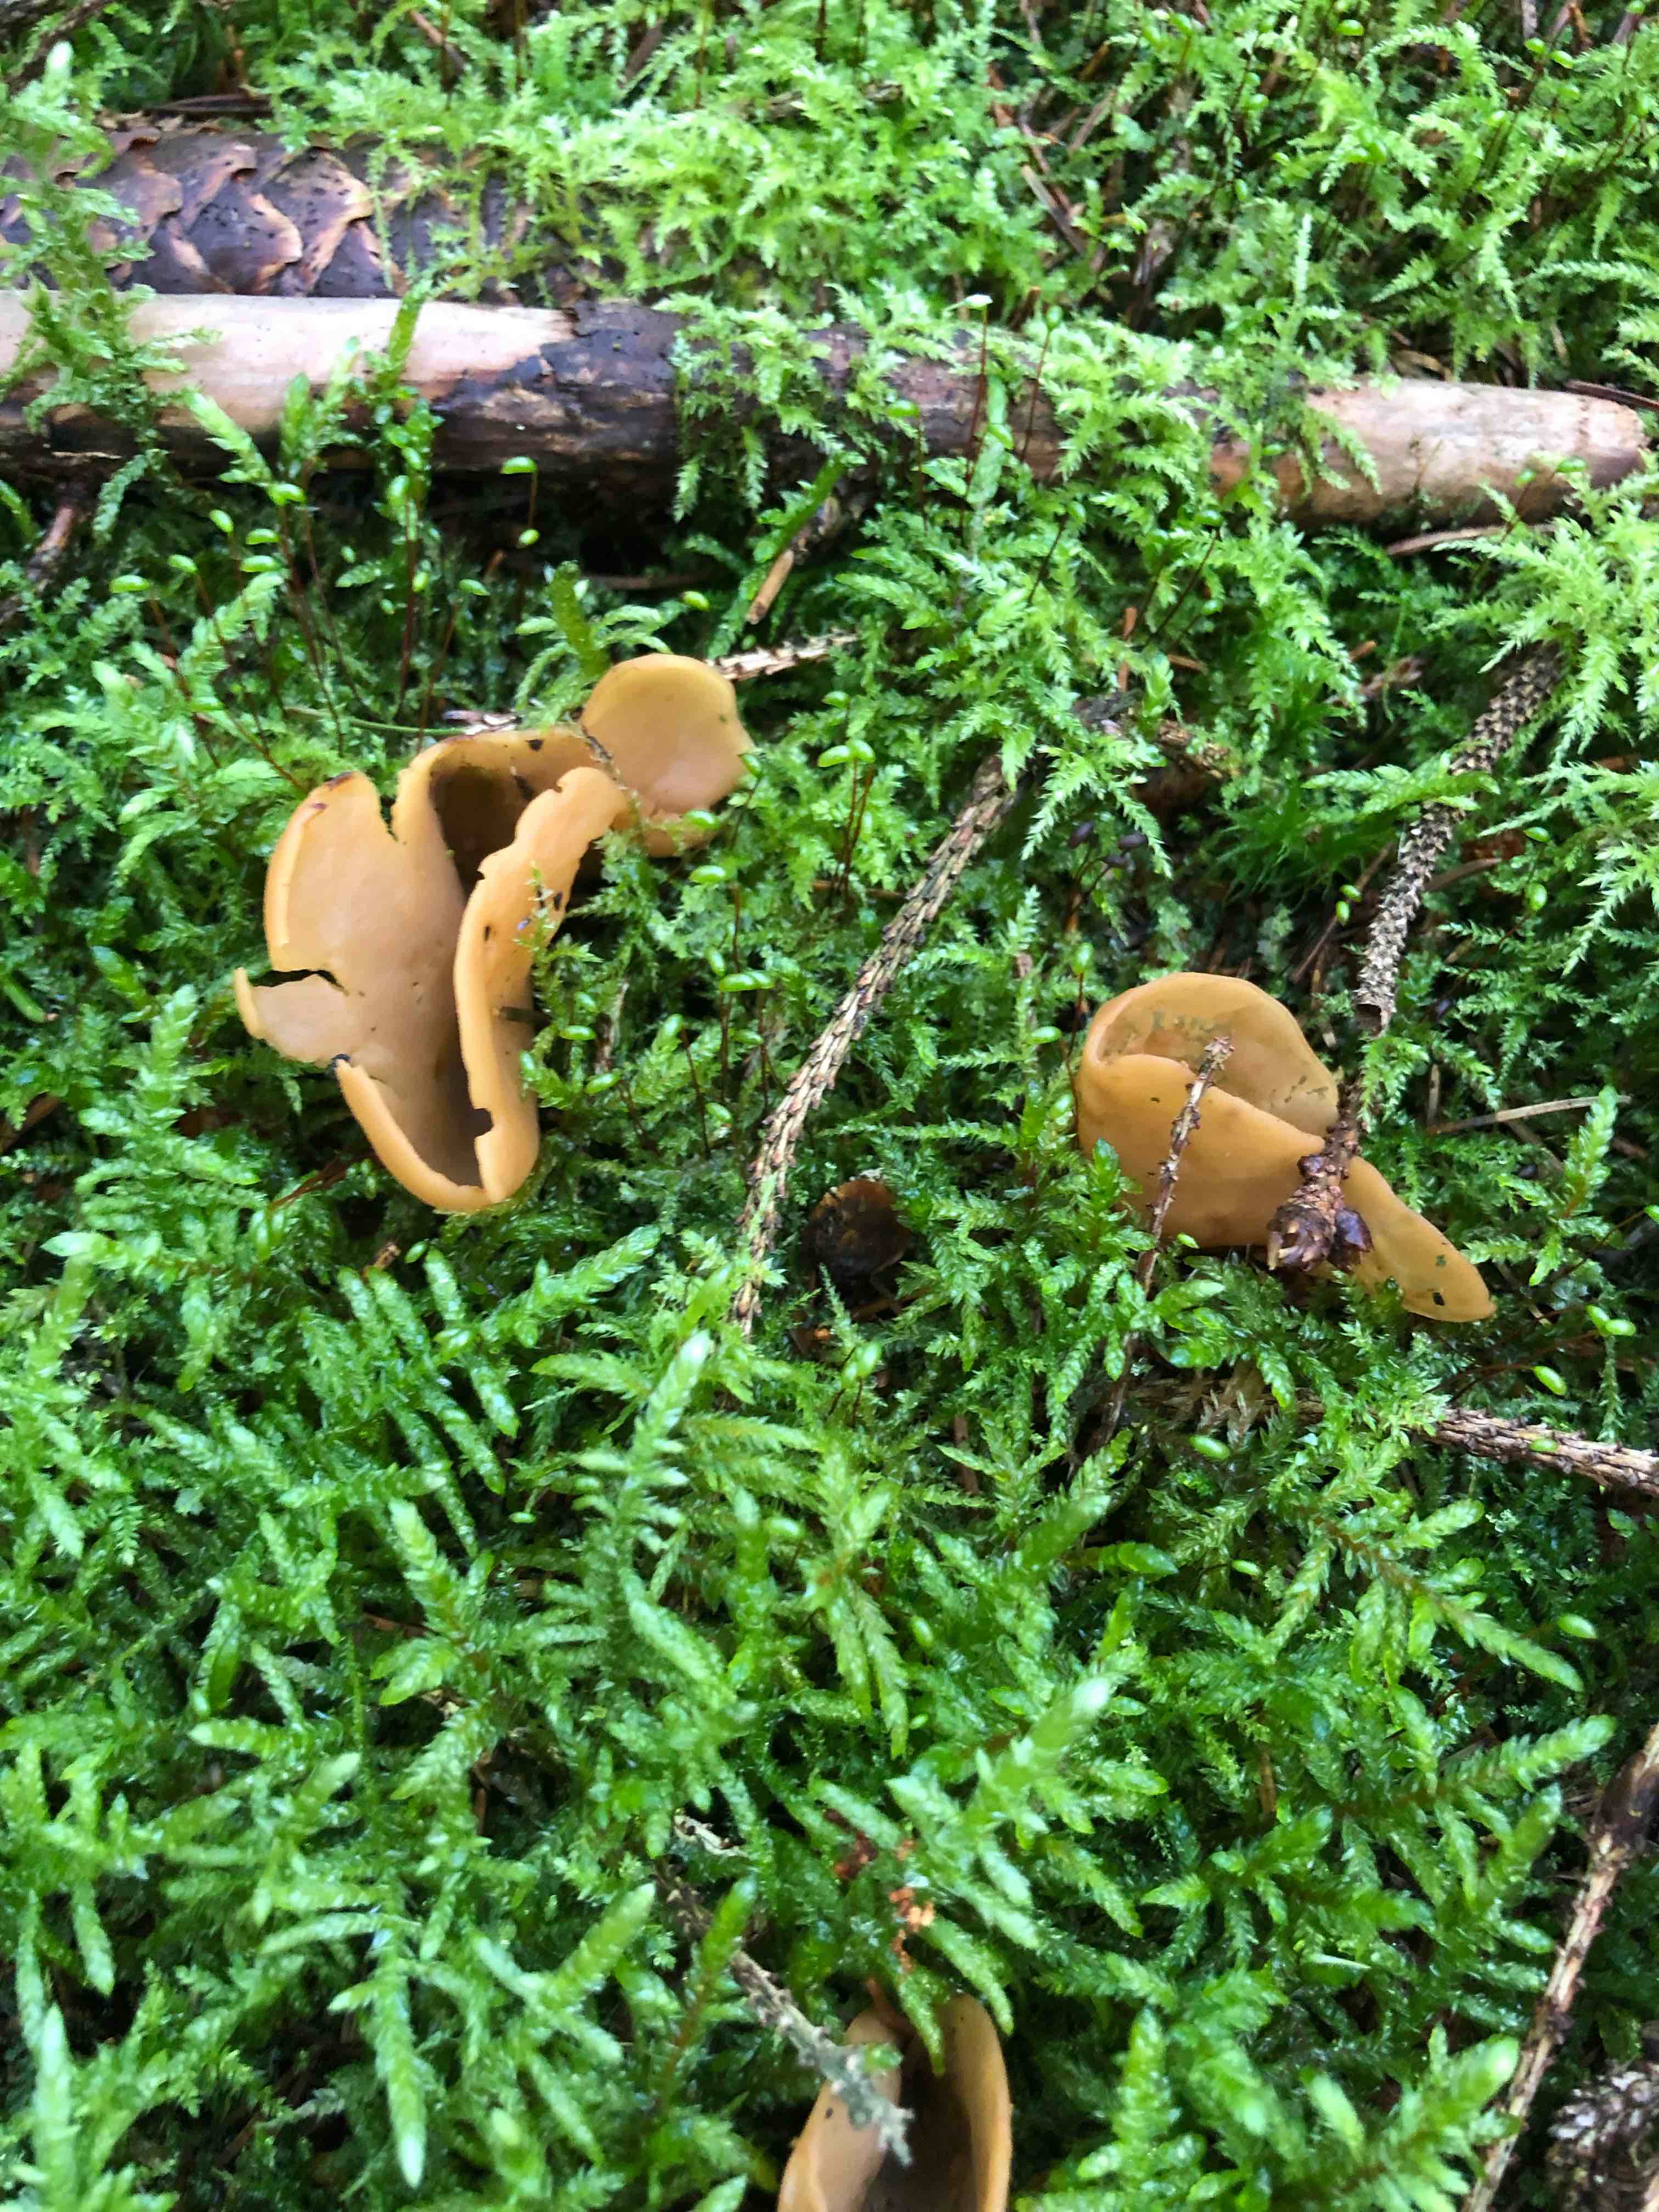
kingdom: Fungi
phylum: Ascomycota
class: Pezizomycetes
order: Pezizales
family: Otideaceae
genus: Otidea
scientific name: Otidea
